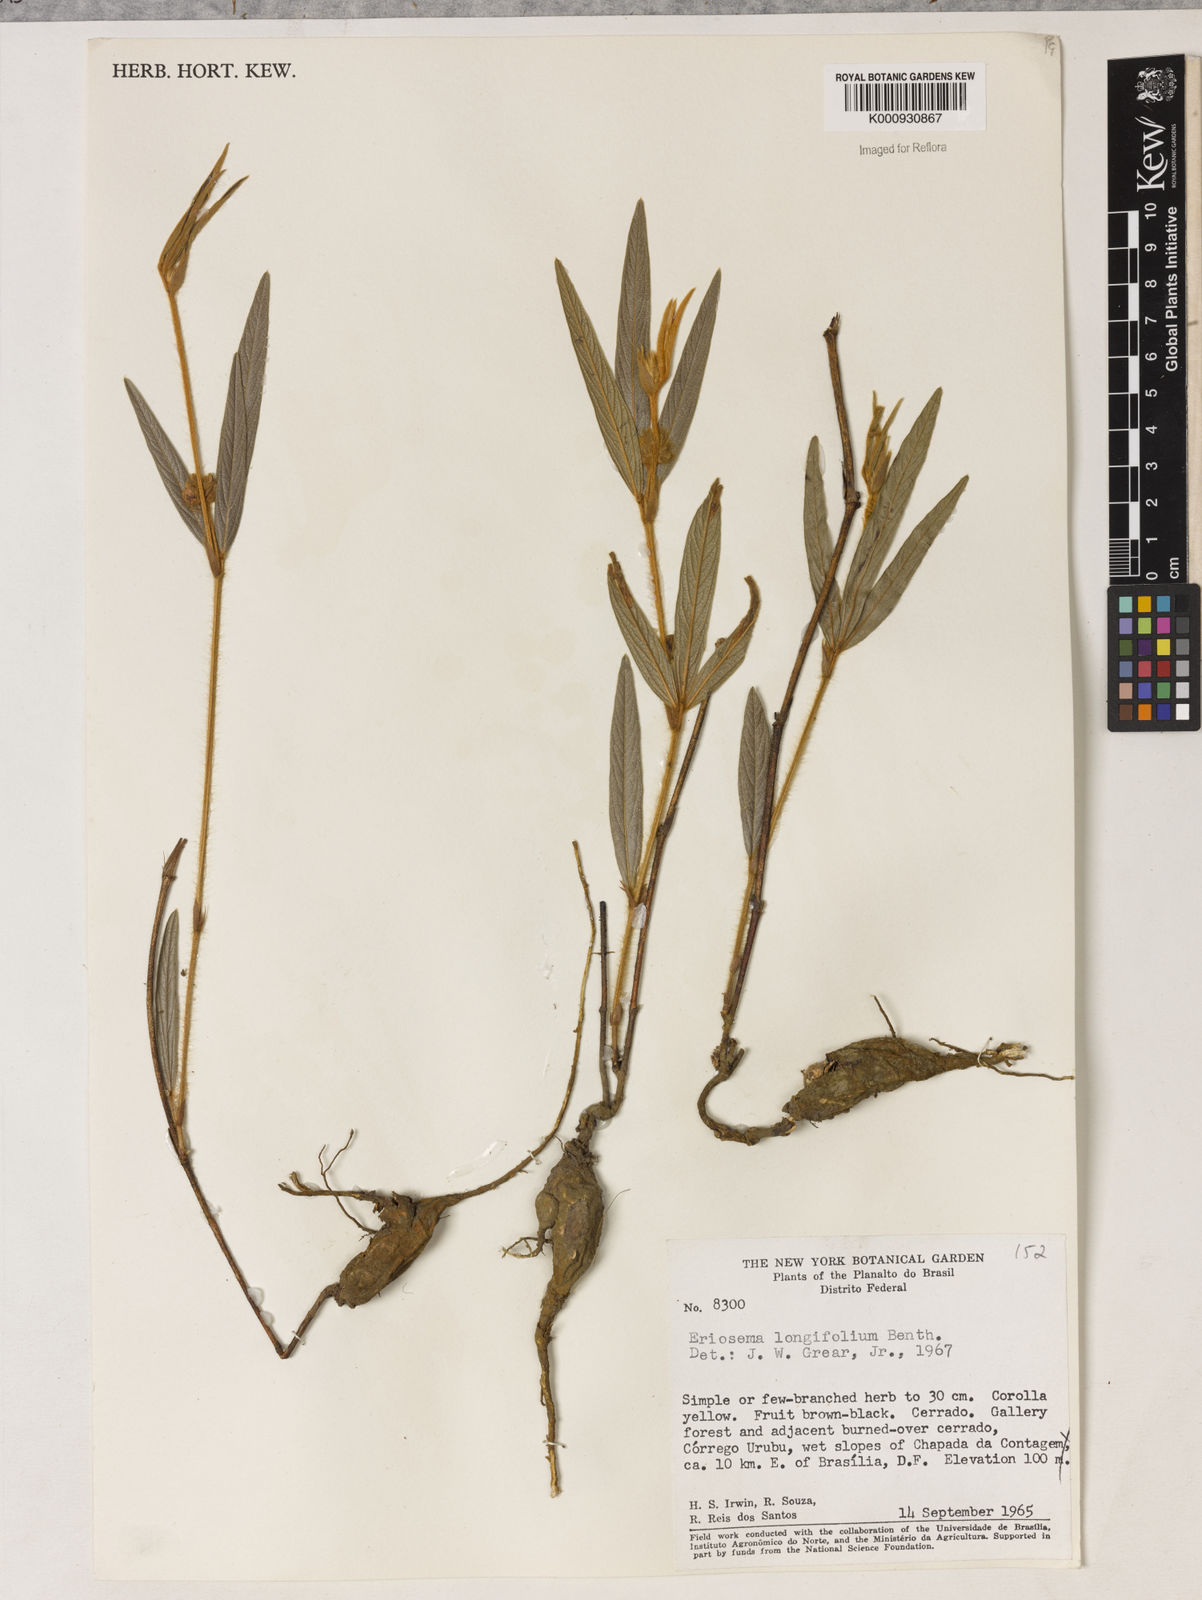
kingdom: Plantae
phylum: Tracheophyta
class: Magnoliopsida
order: Fabales
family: Fabaceae
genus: Eriosema
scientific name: Eriosema longifolium
